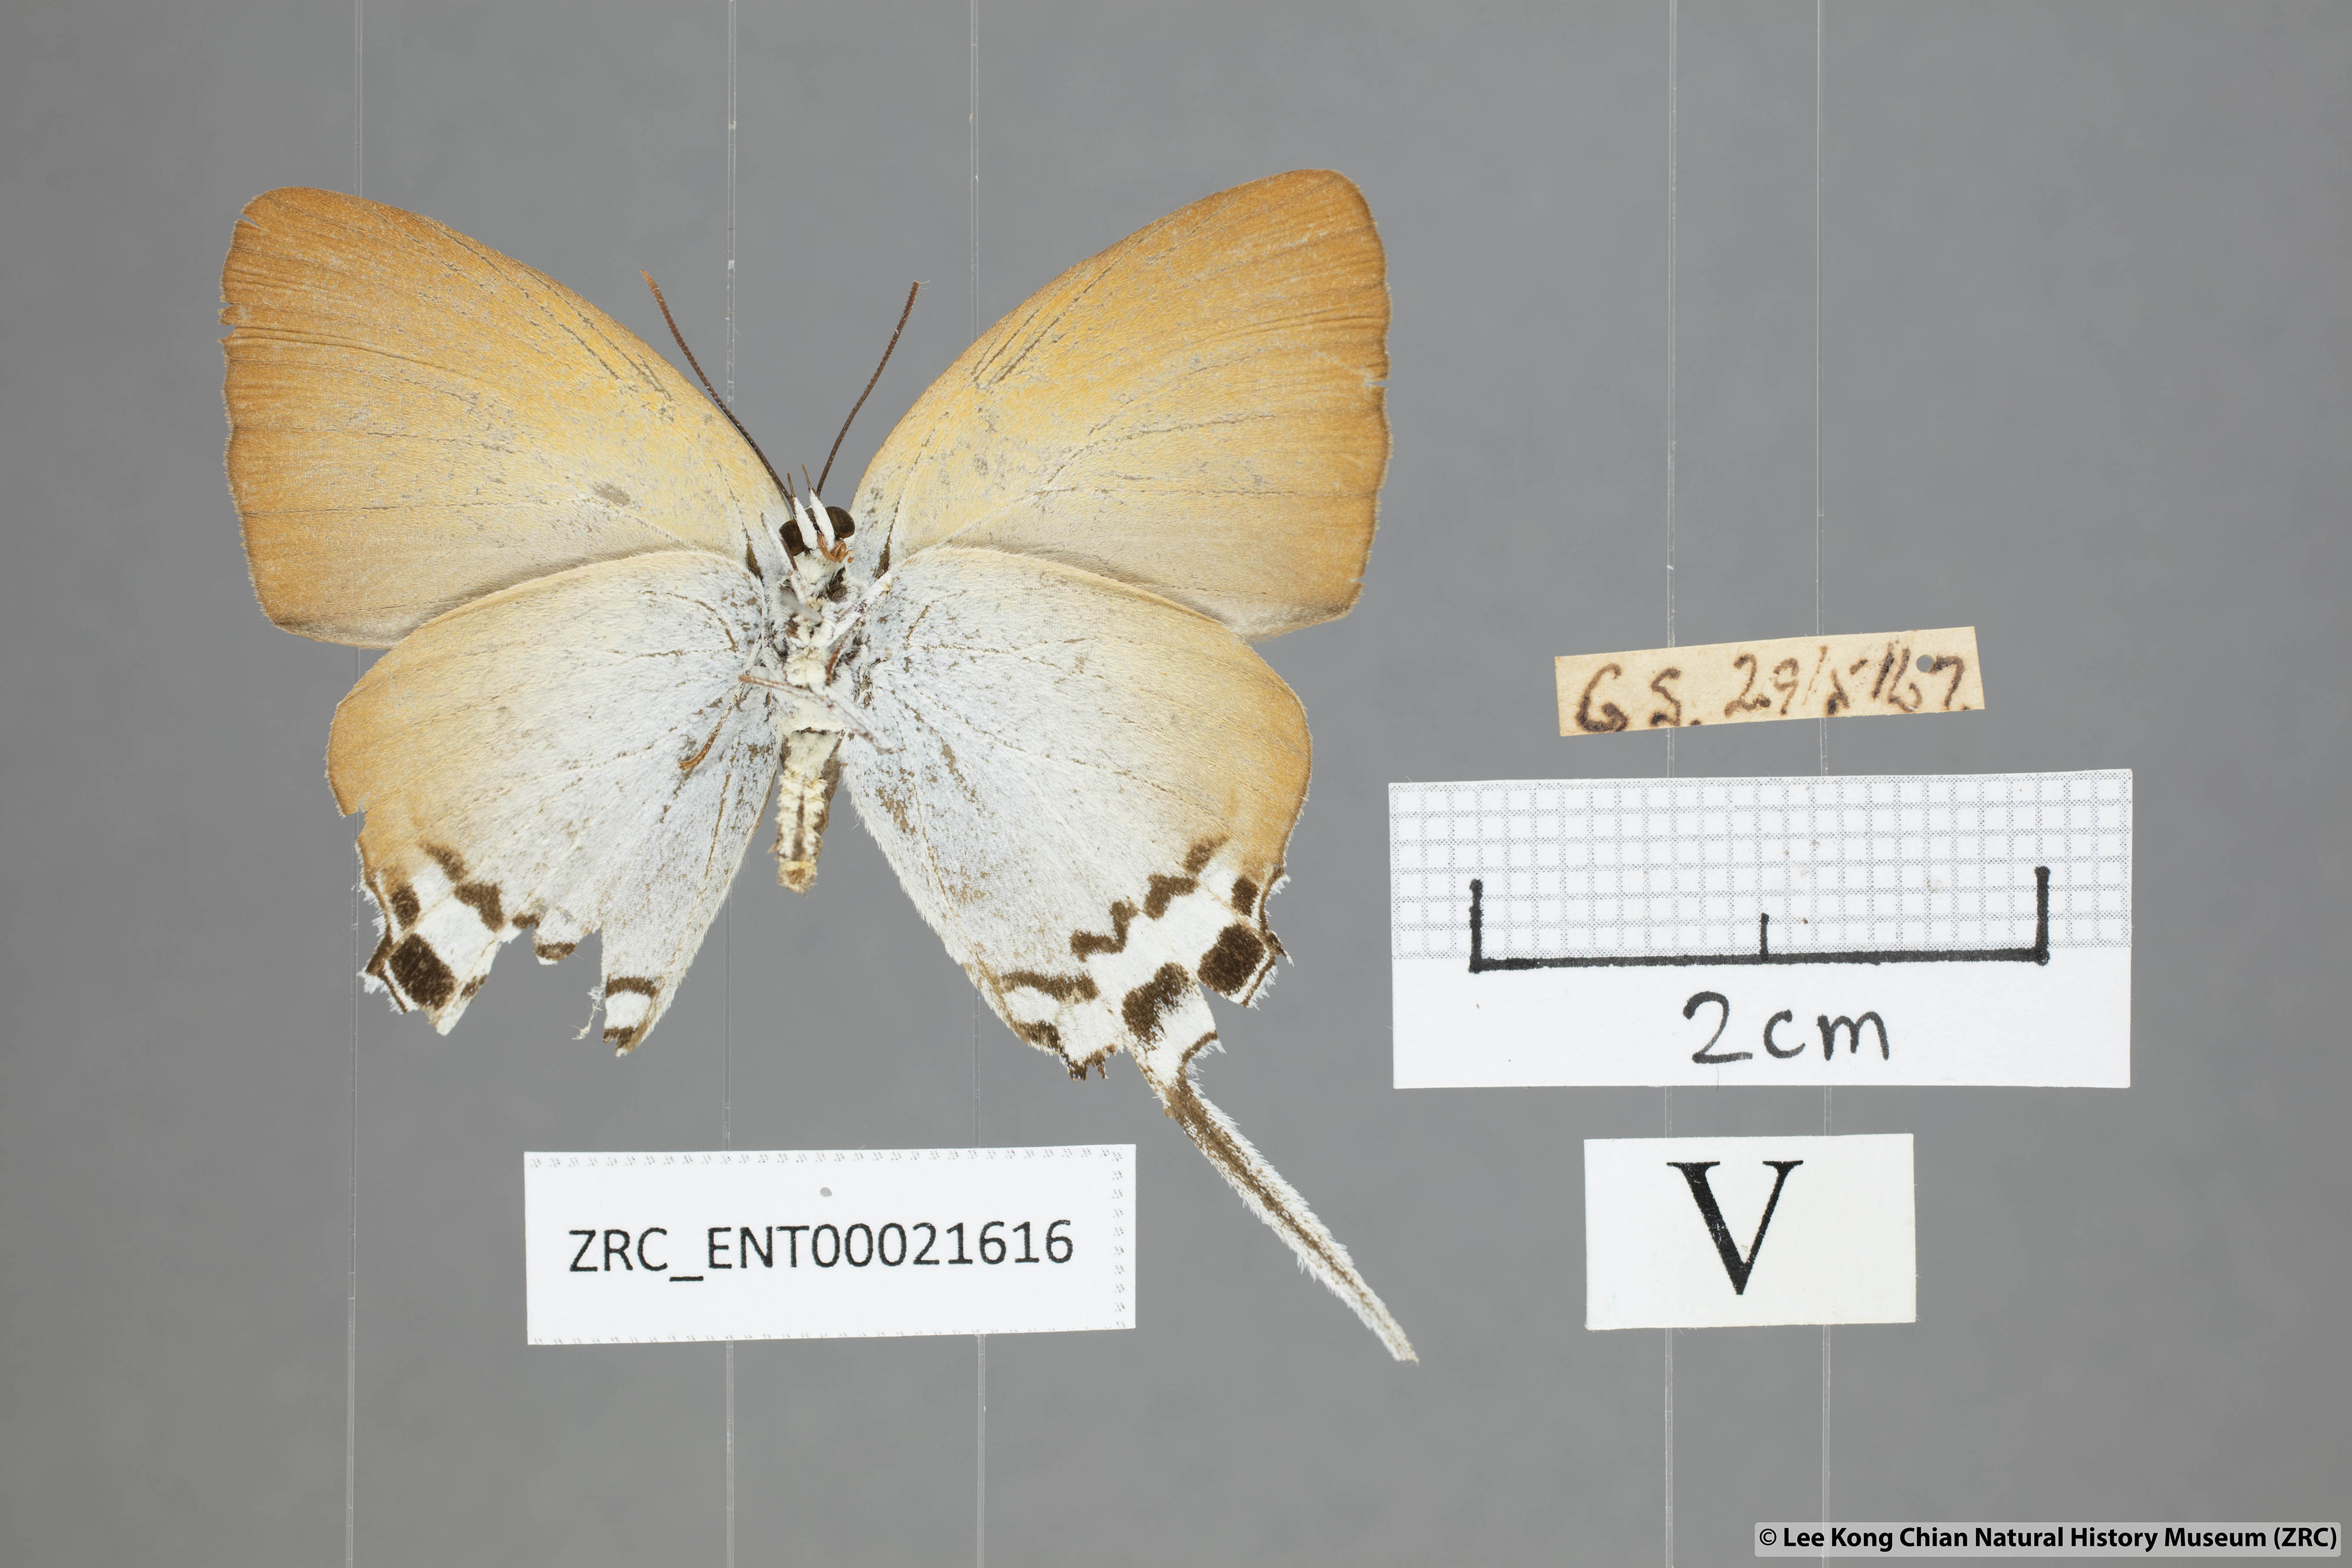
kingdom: Animalia
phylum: Arthropoda
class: Insecta
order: Lepidoptera
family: Lycaenidae
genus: Jacoona
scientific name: Jacoona anasuja
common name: Great imperial
